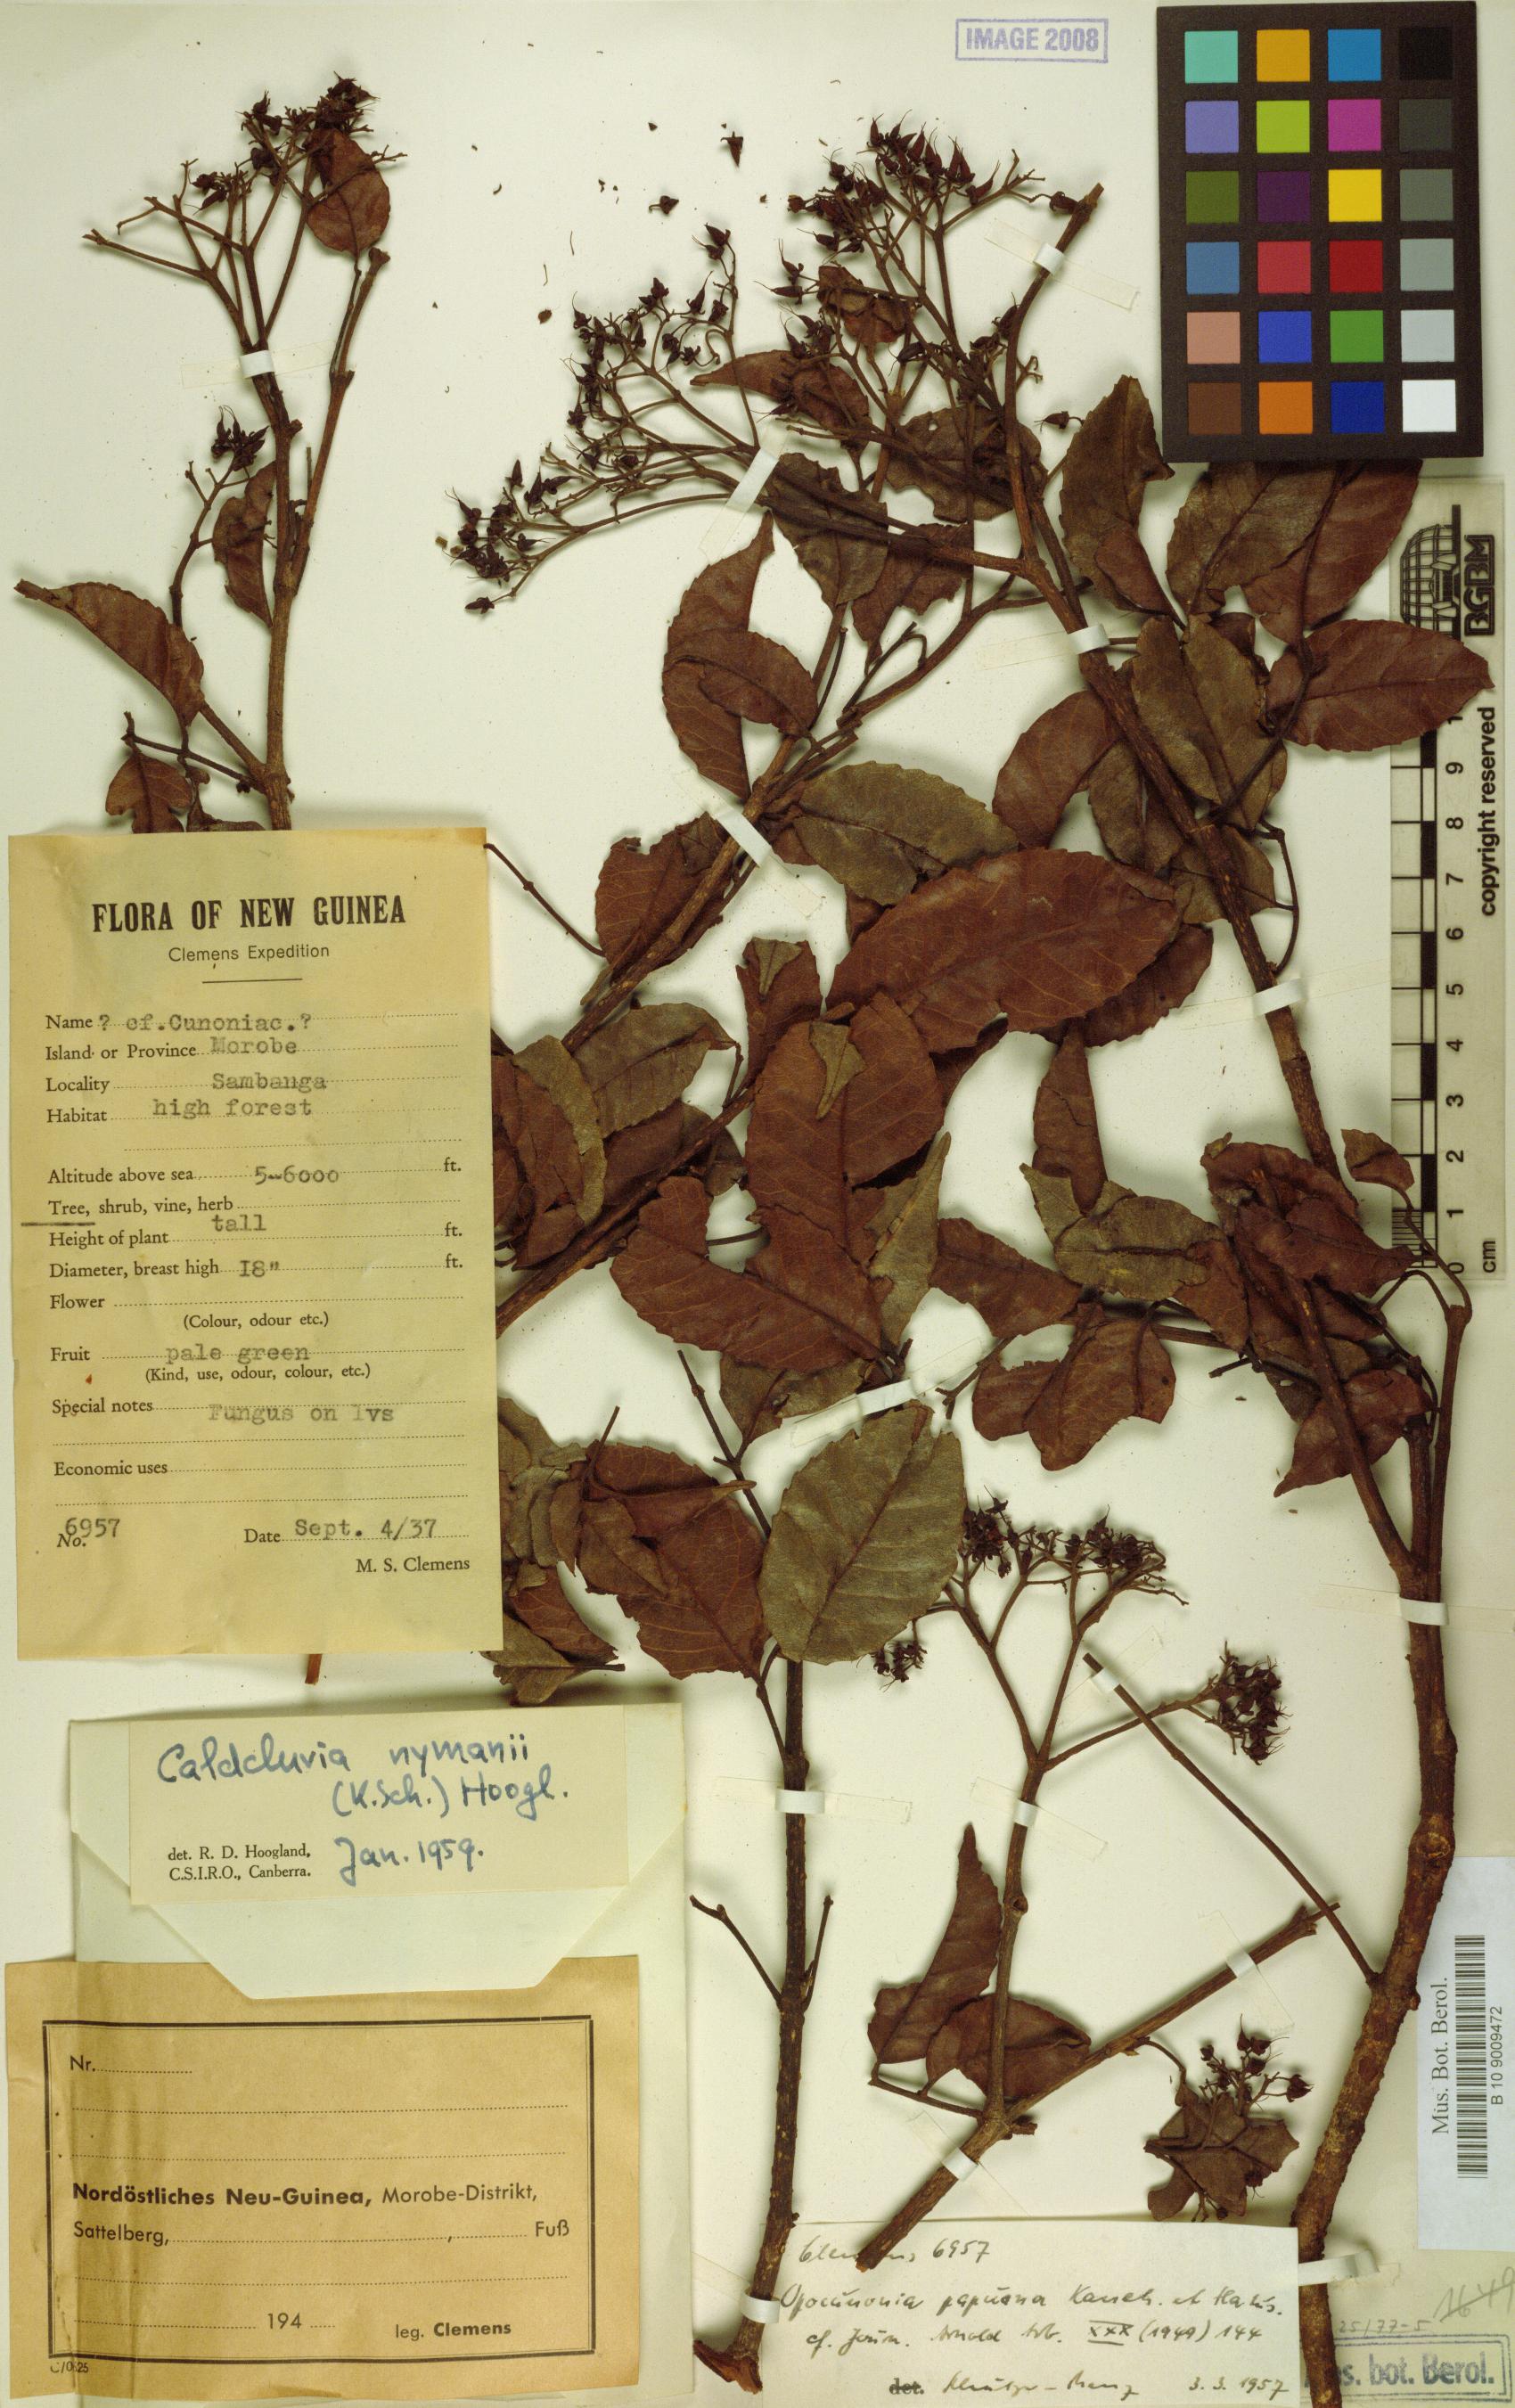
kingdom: Plantae
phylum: Tracheophyta
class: Magnoliopsida
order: Oxalidales
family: Cunoniaceae
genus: Opocunonia
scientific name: Opocunonia nymanii
